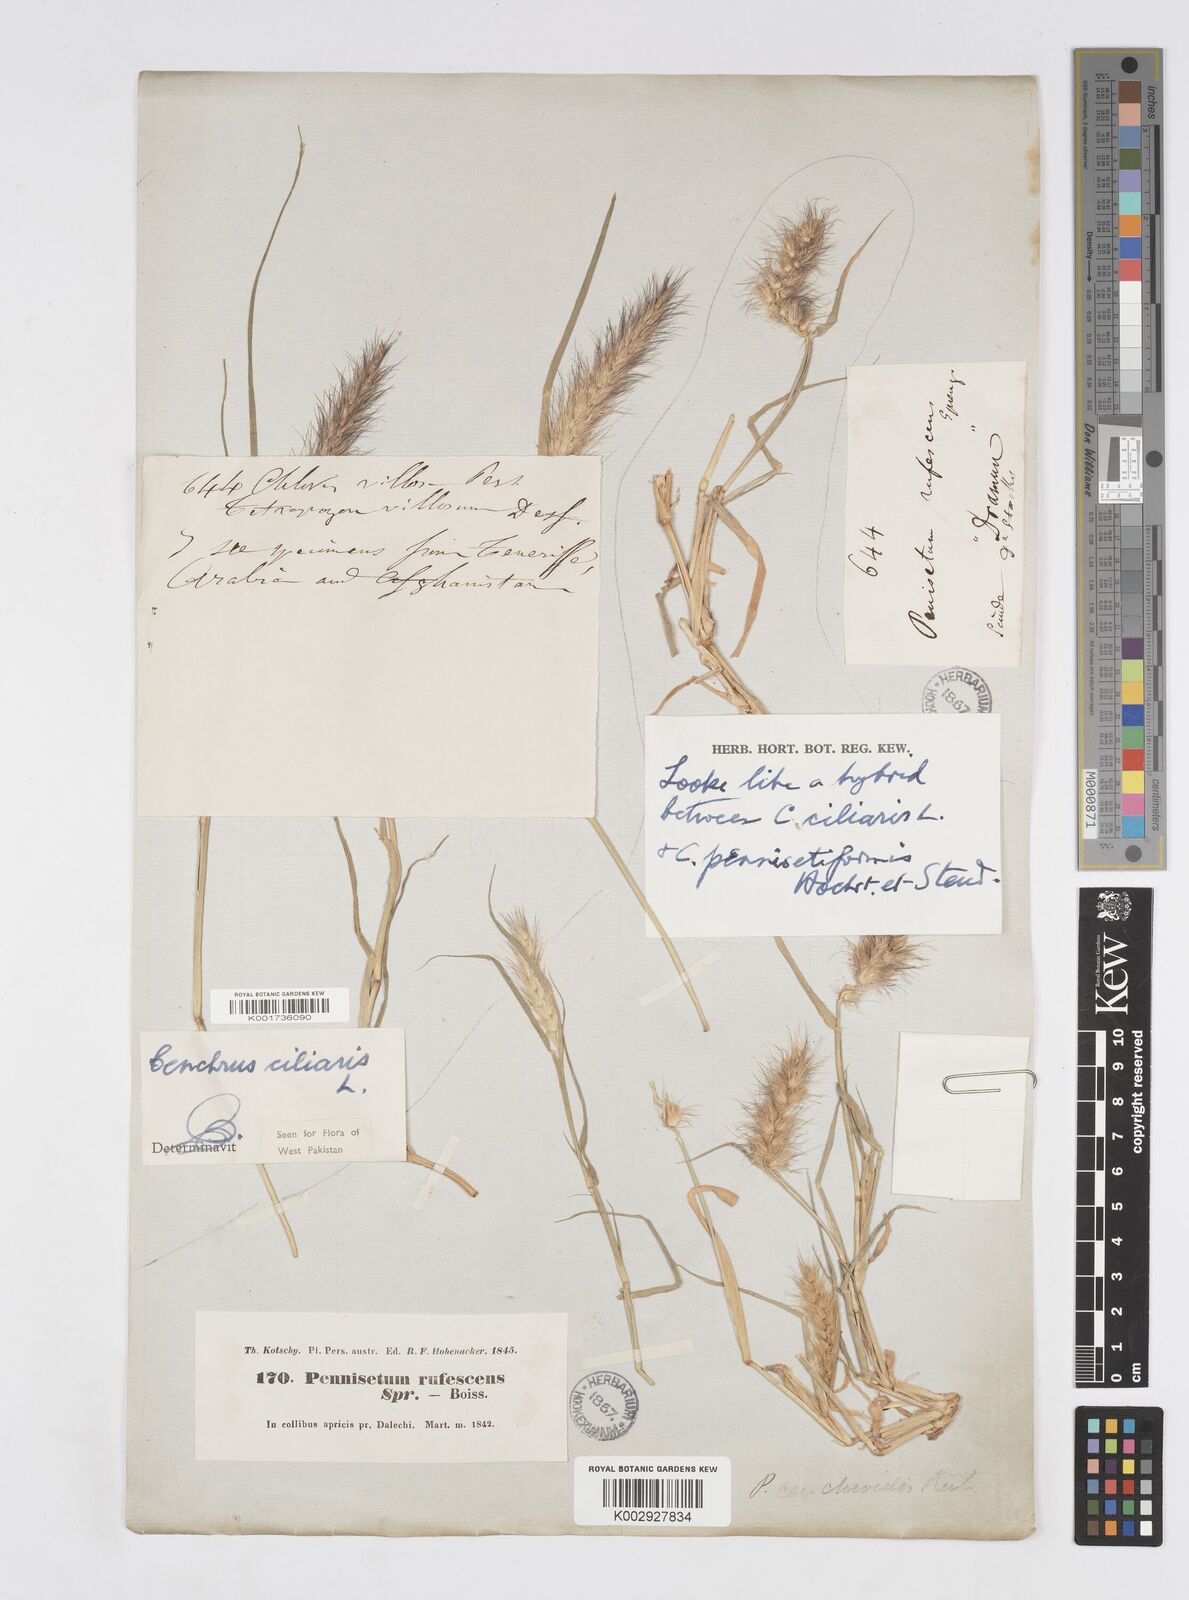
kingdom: Plantae
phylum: Tracheophyta
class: Liliopsida
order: Poales
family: Poaceae
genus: Cenchrus
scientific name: Cenchrus ciliaris
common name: Buffelgrass
